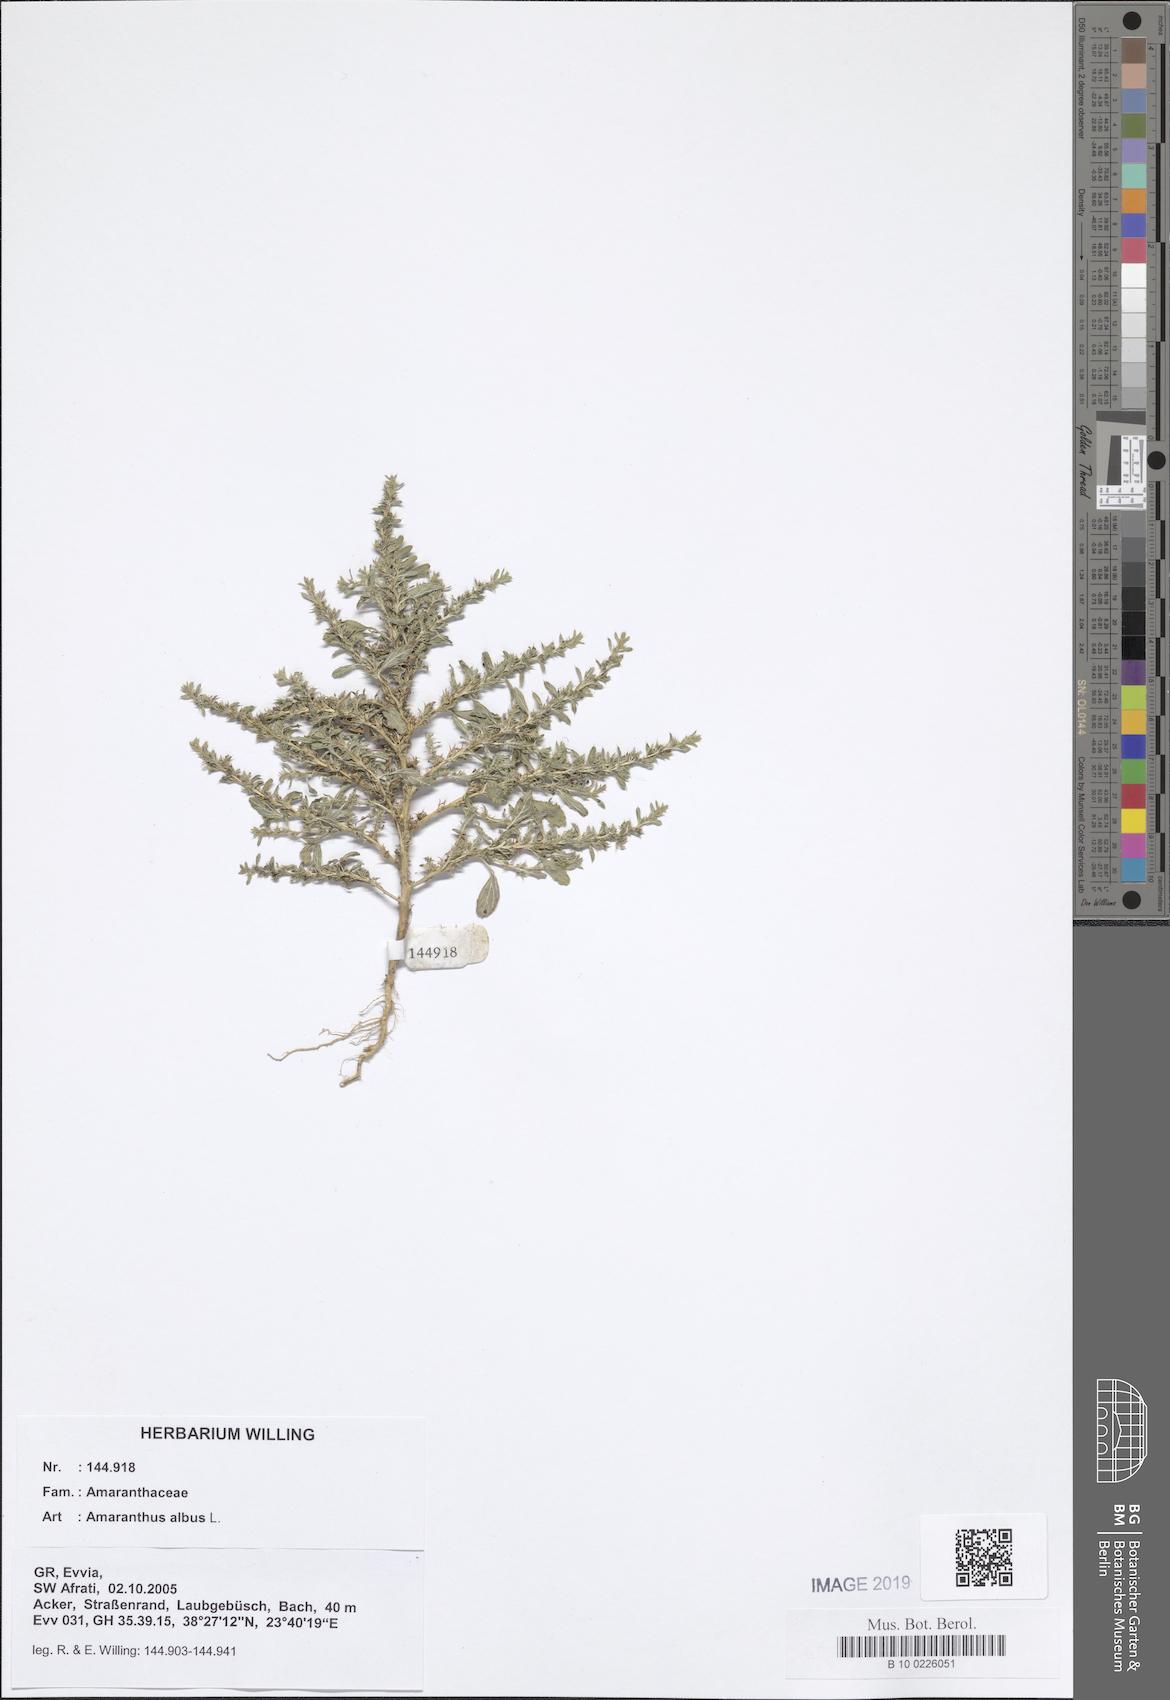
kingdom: Plantae
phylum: Tracheophyta
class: Magnoliopsida
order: Caryophyllales
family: Amaranthaceae
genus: Amaranthus
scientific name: Amaranthus albus
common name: White pigweed
